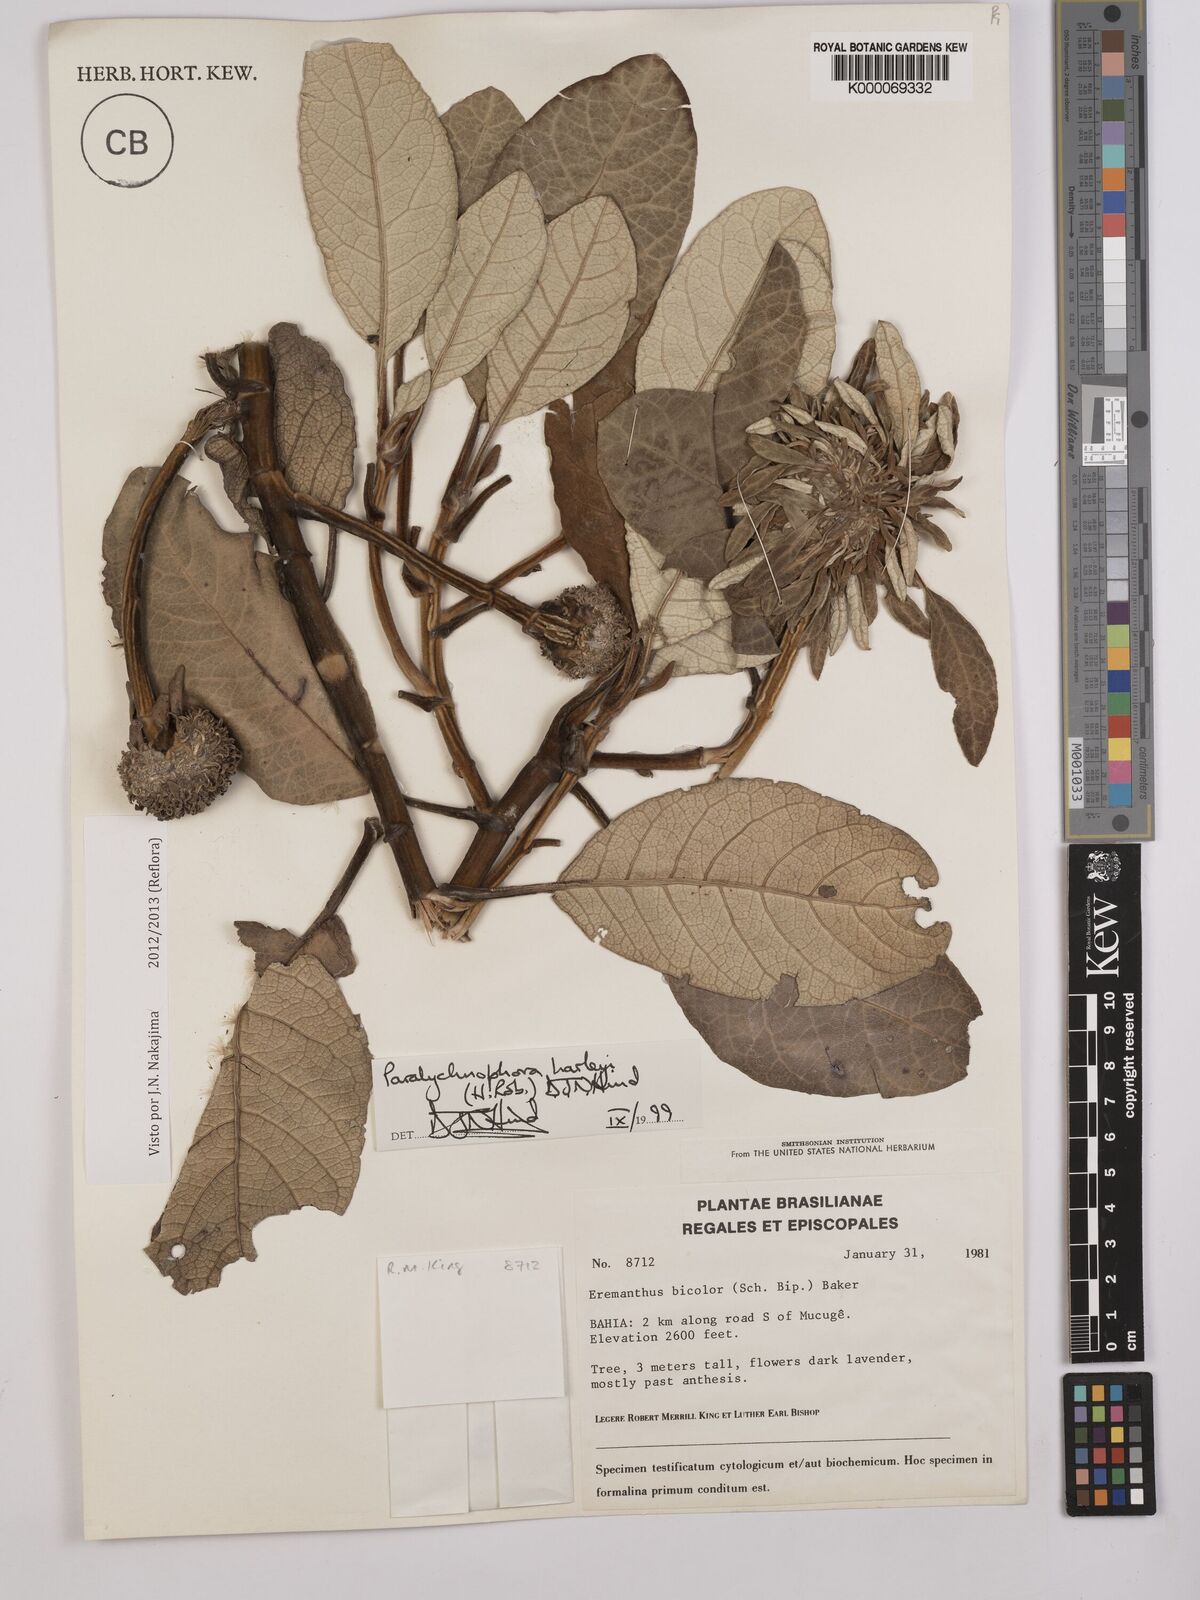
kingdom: Plantae
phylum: Tracheophyta
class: Magnoliopsida
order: Asterales
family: Asteraceae
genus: Paralychnophora
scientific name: Paralychnophora harleyi
